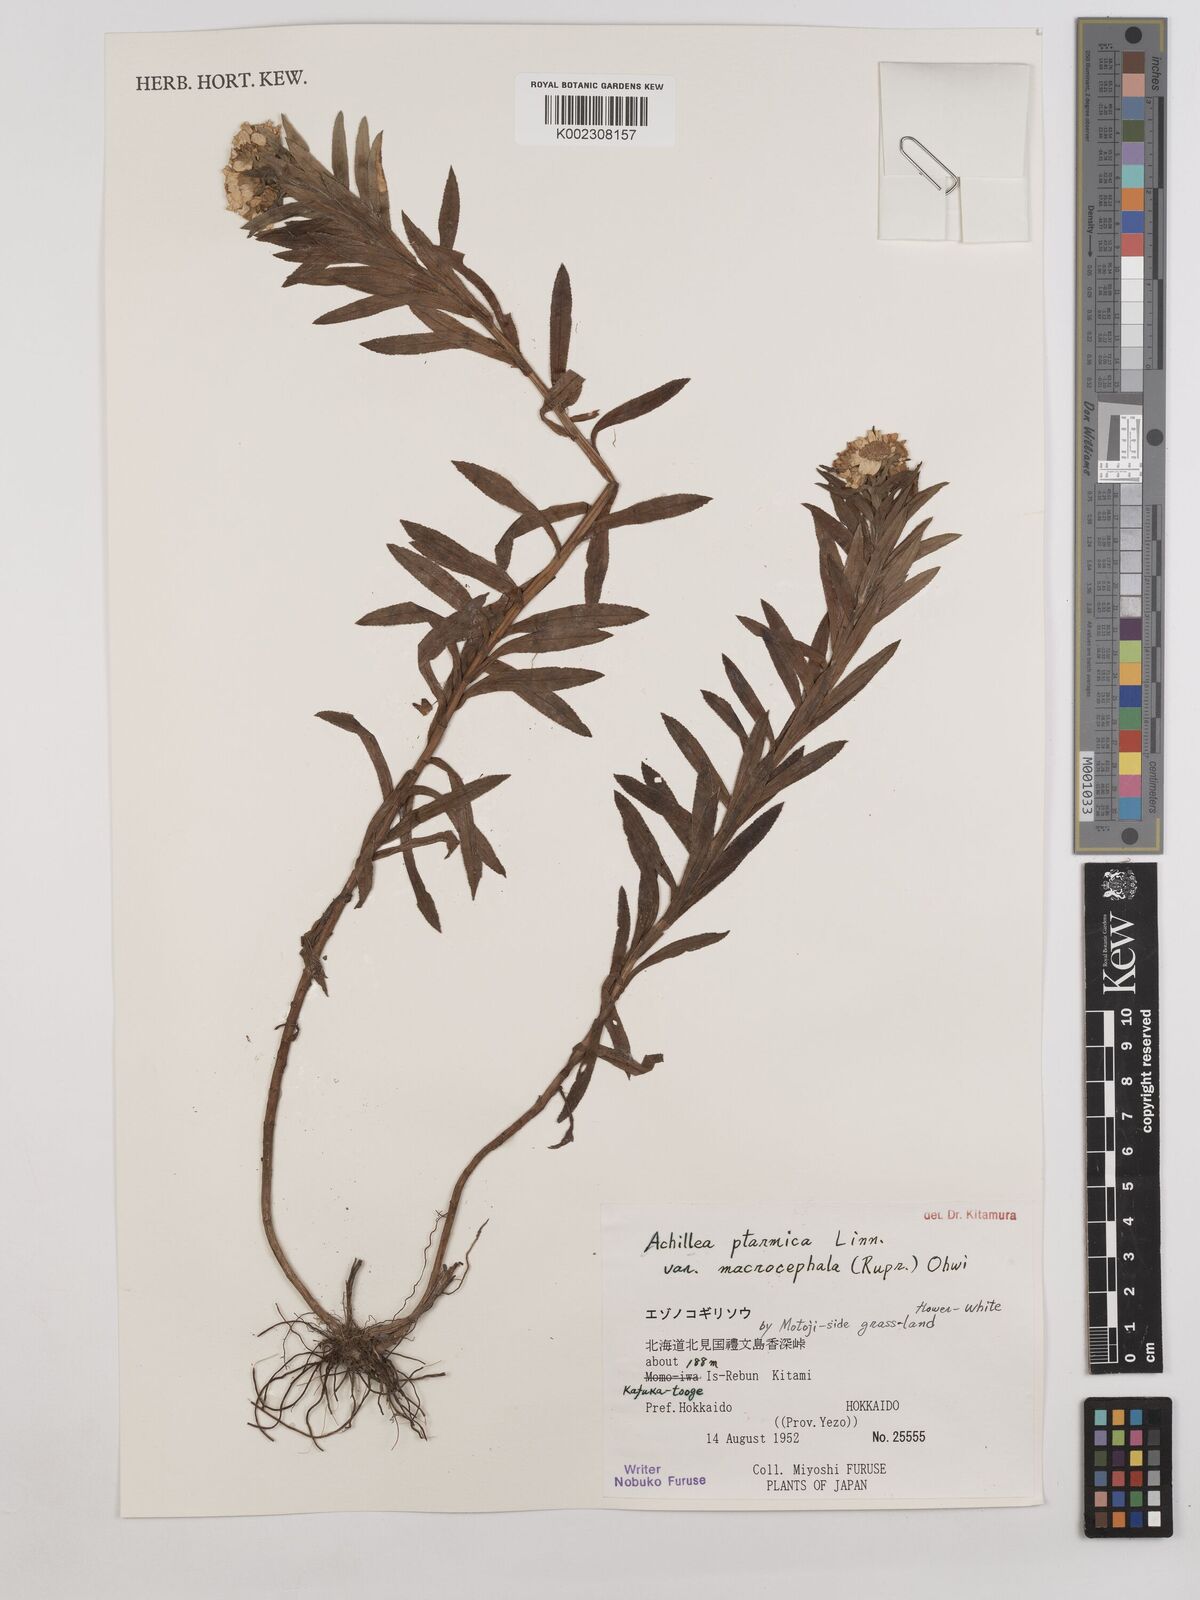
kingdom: Plantae
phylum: Tracheophyta
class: Magnoliopsida
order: Asterales
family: Asteraceae
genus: Achillea
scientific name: Achillea ptarmica
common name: Sneezeweed
